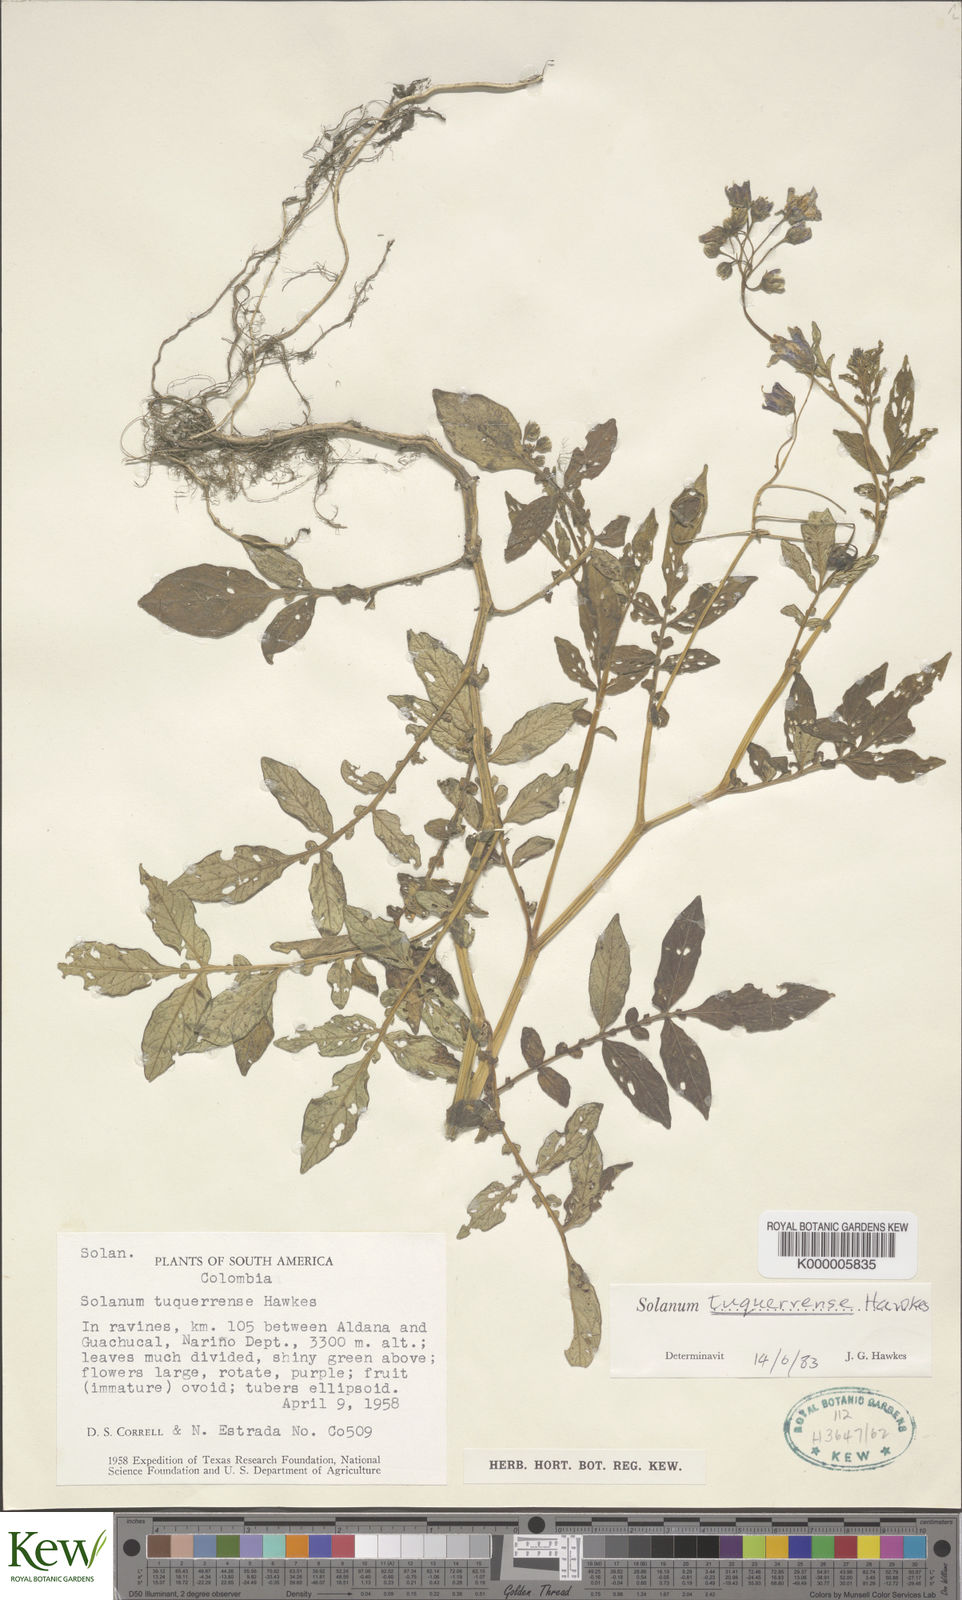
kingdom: Plantae
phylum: Tracheophyta
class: Magnoliopsida
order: Solanales
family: Solanaceae
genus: Solanum
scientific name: Solanum andreanum
